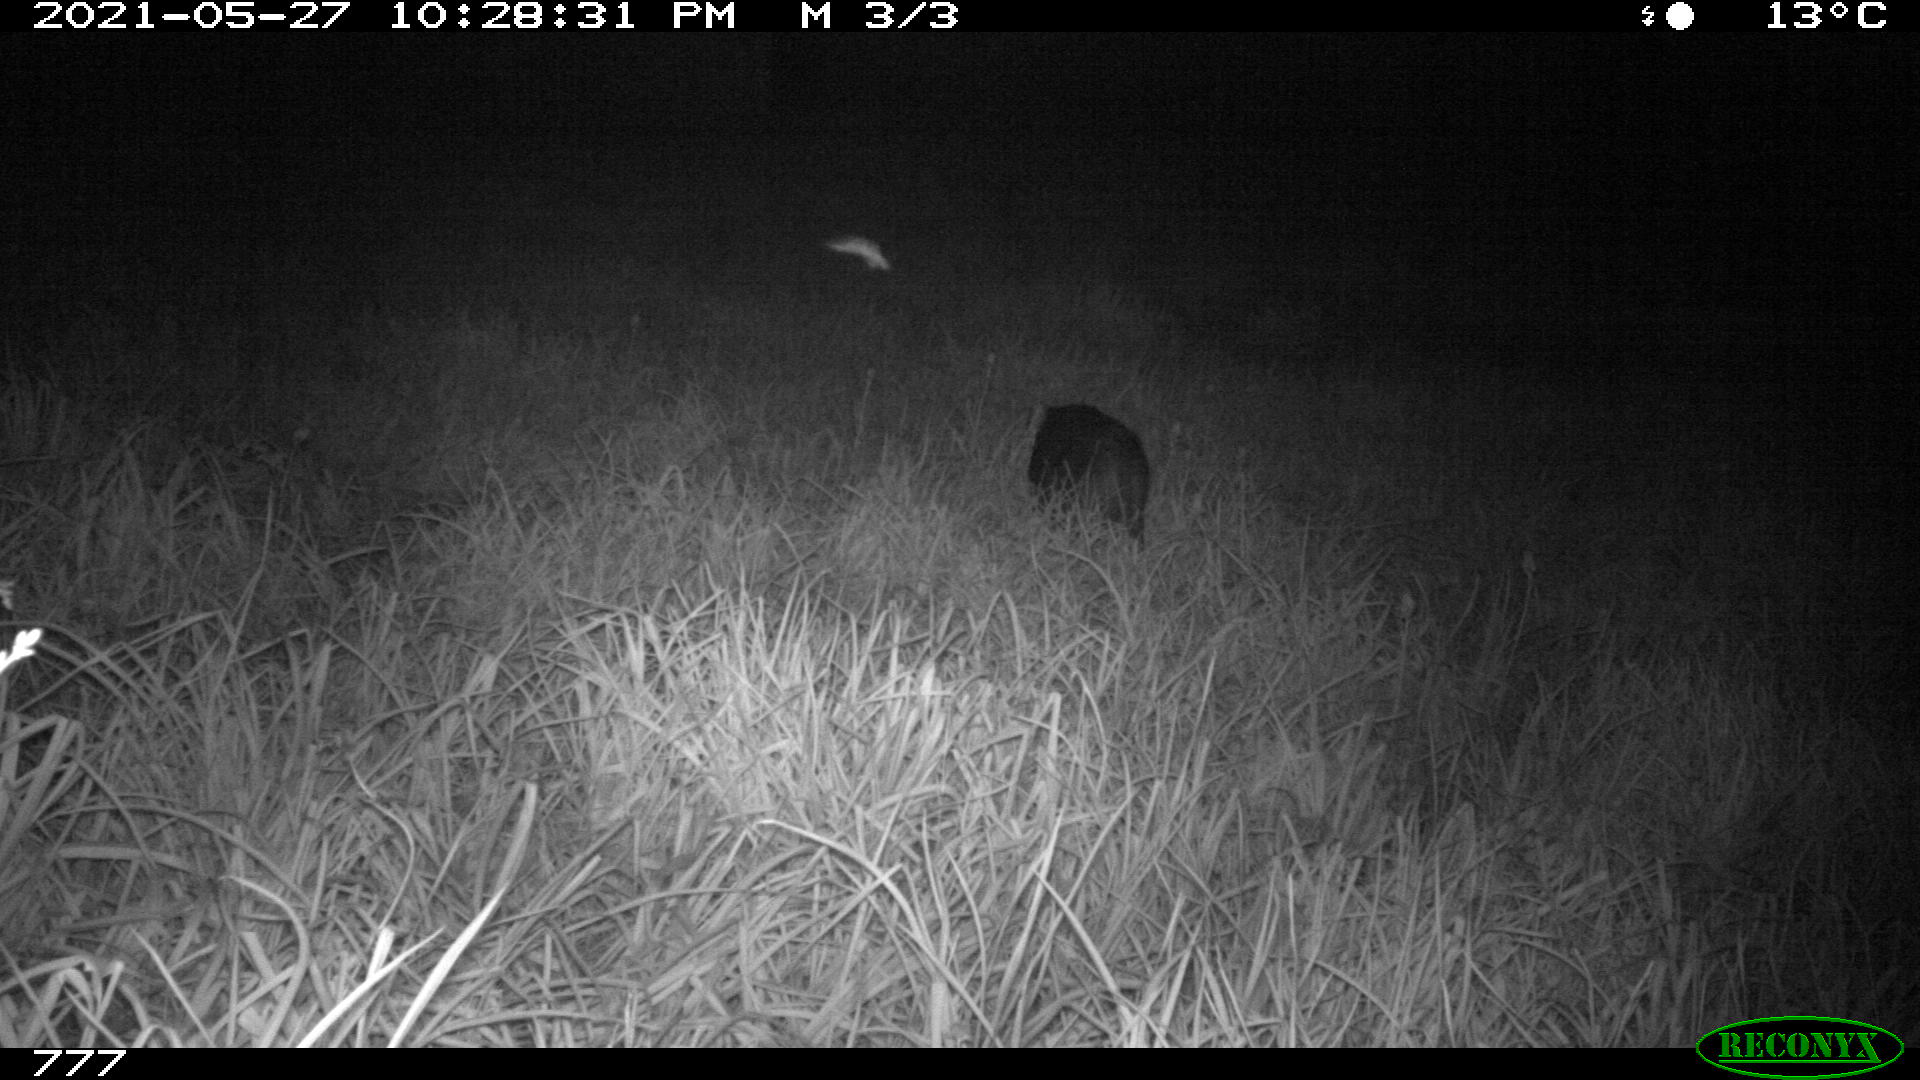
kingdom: Animalia
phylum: Chordata
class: Mammalia
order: Artiodactyla
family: Suidae
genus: Sus
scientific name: Sus scrofa
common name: Wild boar
